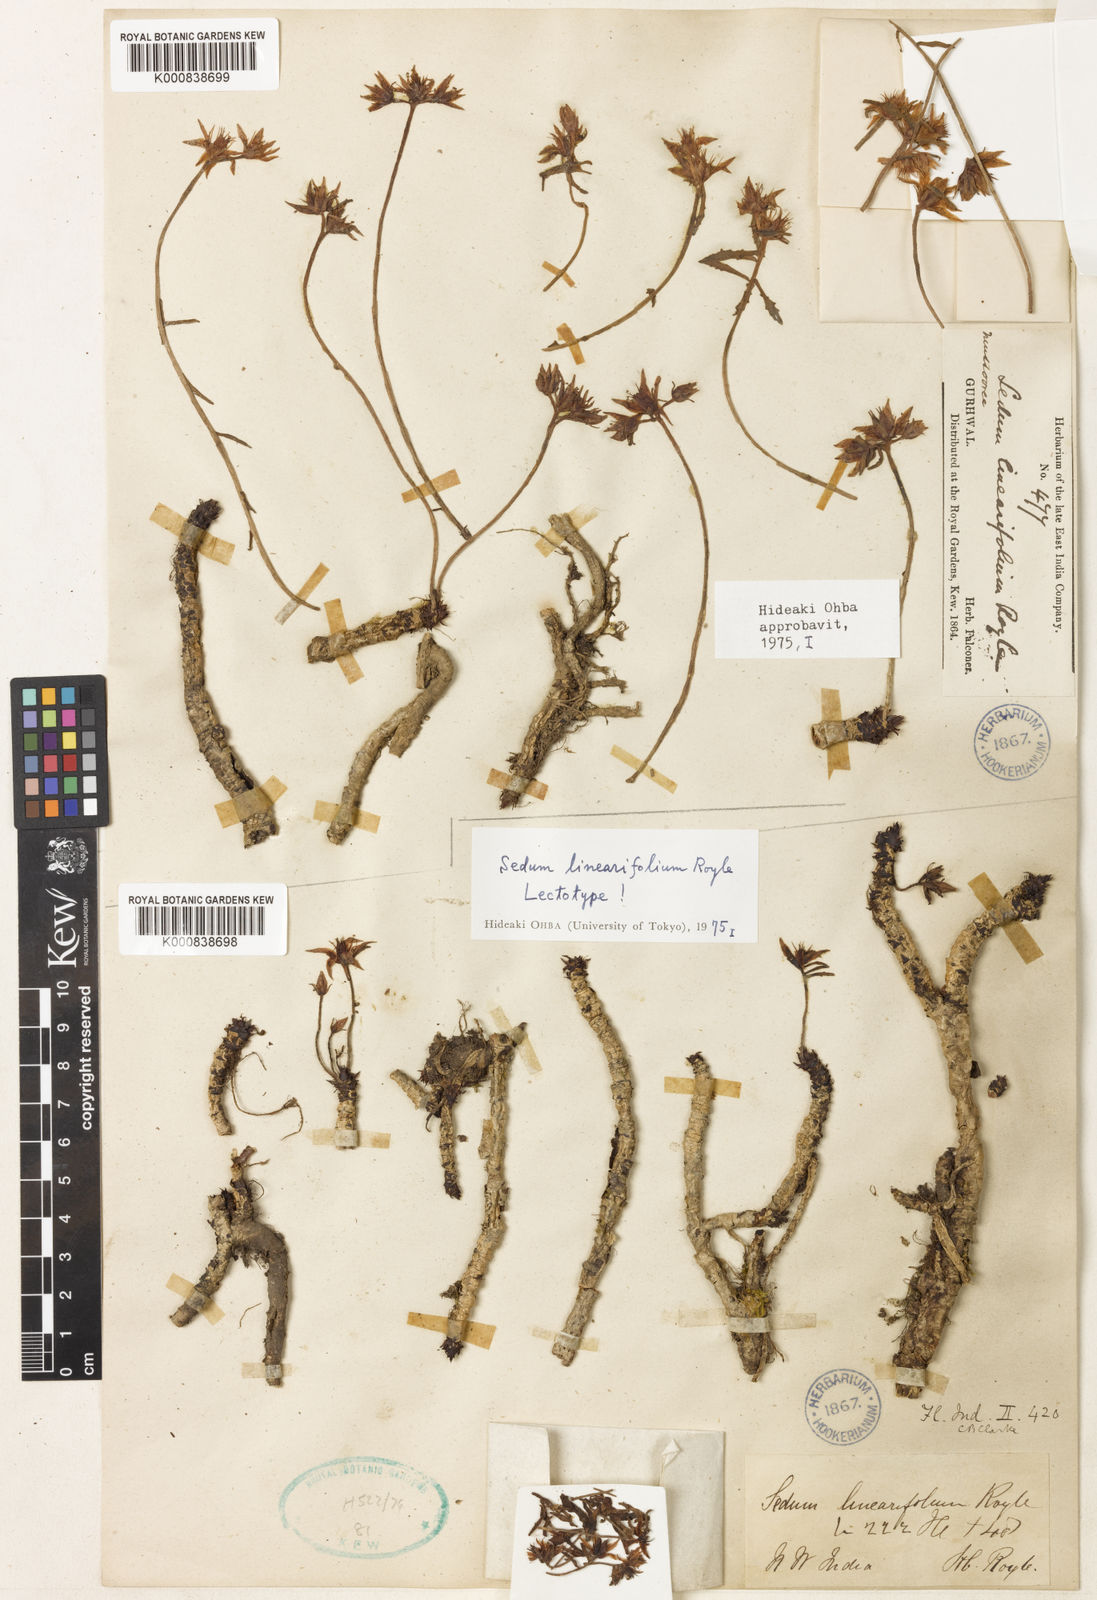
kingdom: Plantae
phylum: Tracheophyta
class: Magnoliopsida
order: Saxifragales
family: Crassulaceae
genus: Rhodiola
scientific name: Rhodiola sinuata
